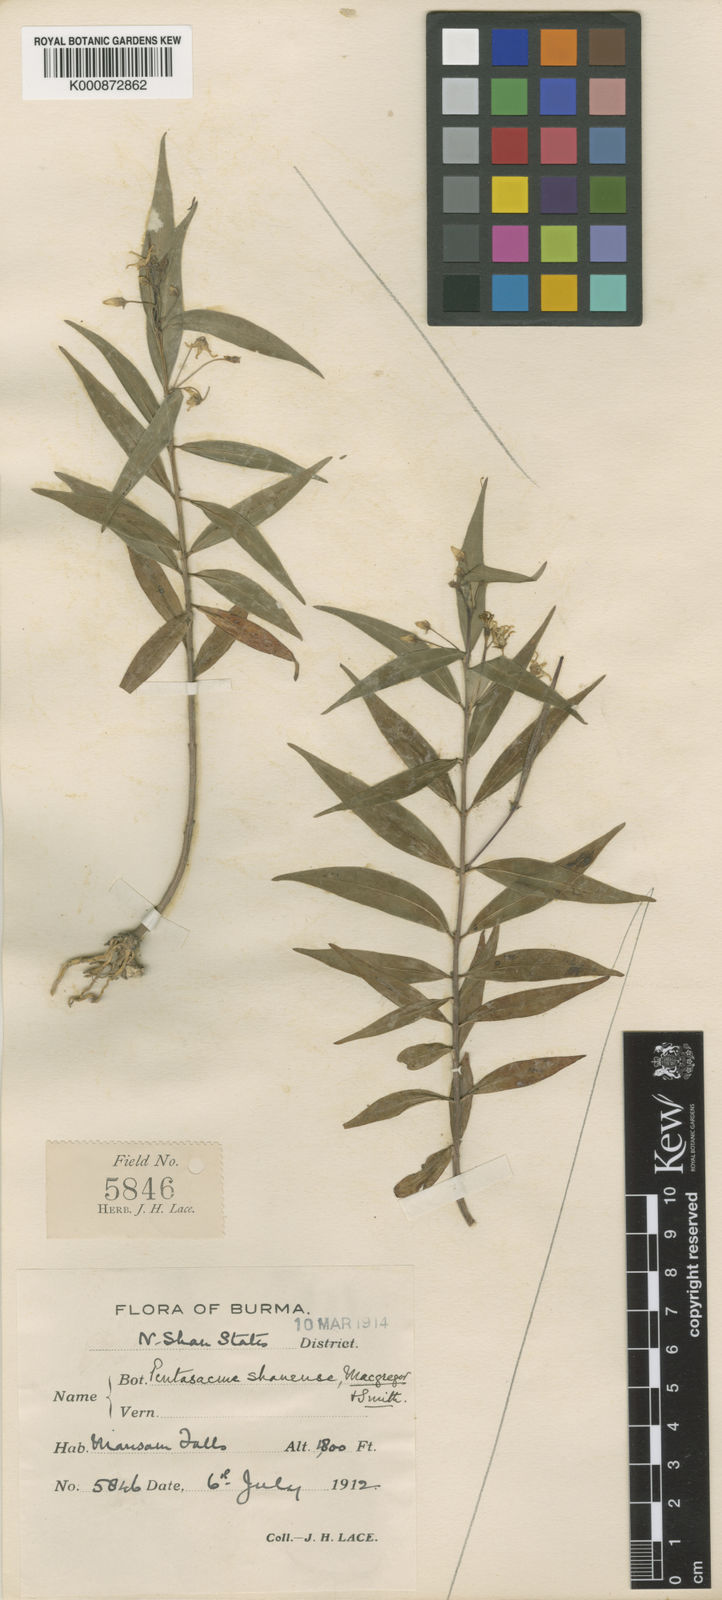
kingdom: Plantae
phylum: Tracheophyta
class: Magnoliopsida
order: Gentianales
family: Apocynaceae
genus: Pentasachme
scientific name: Pentasachme shanense
